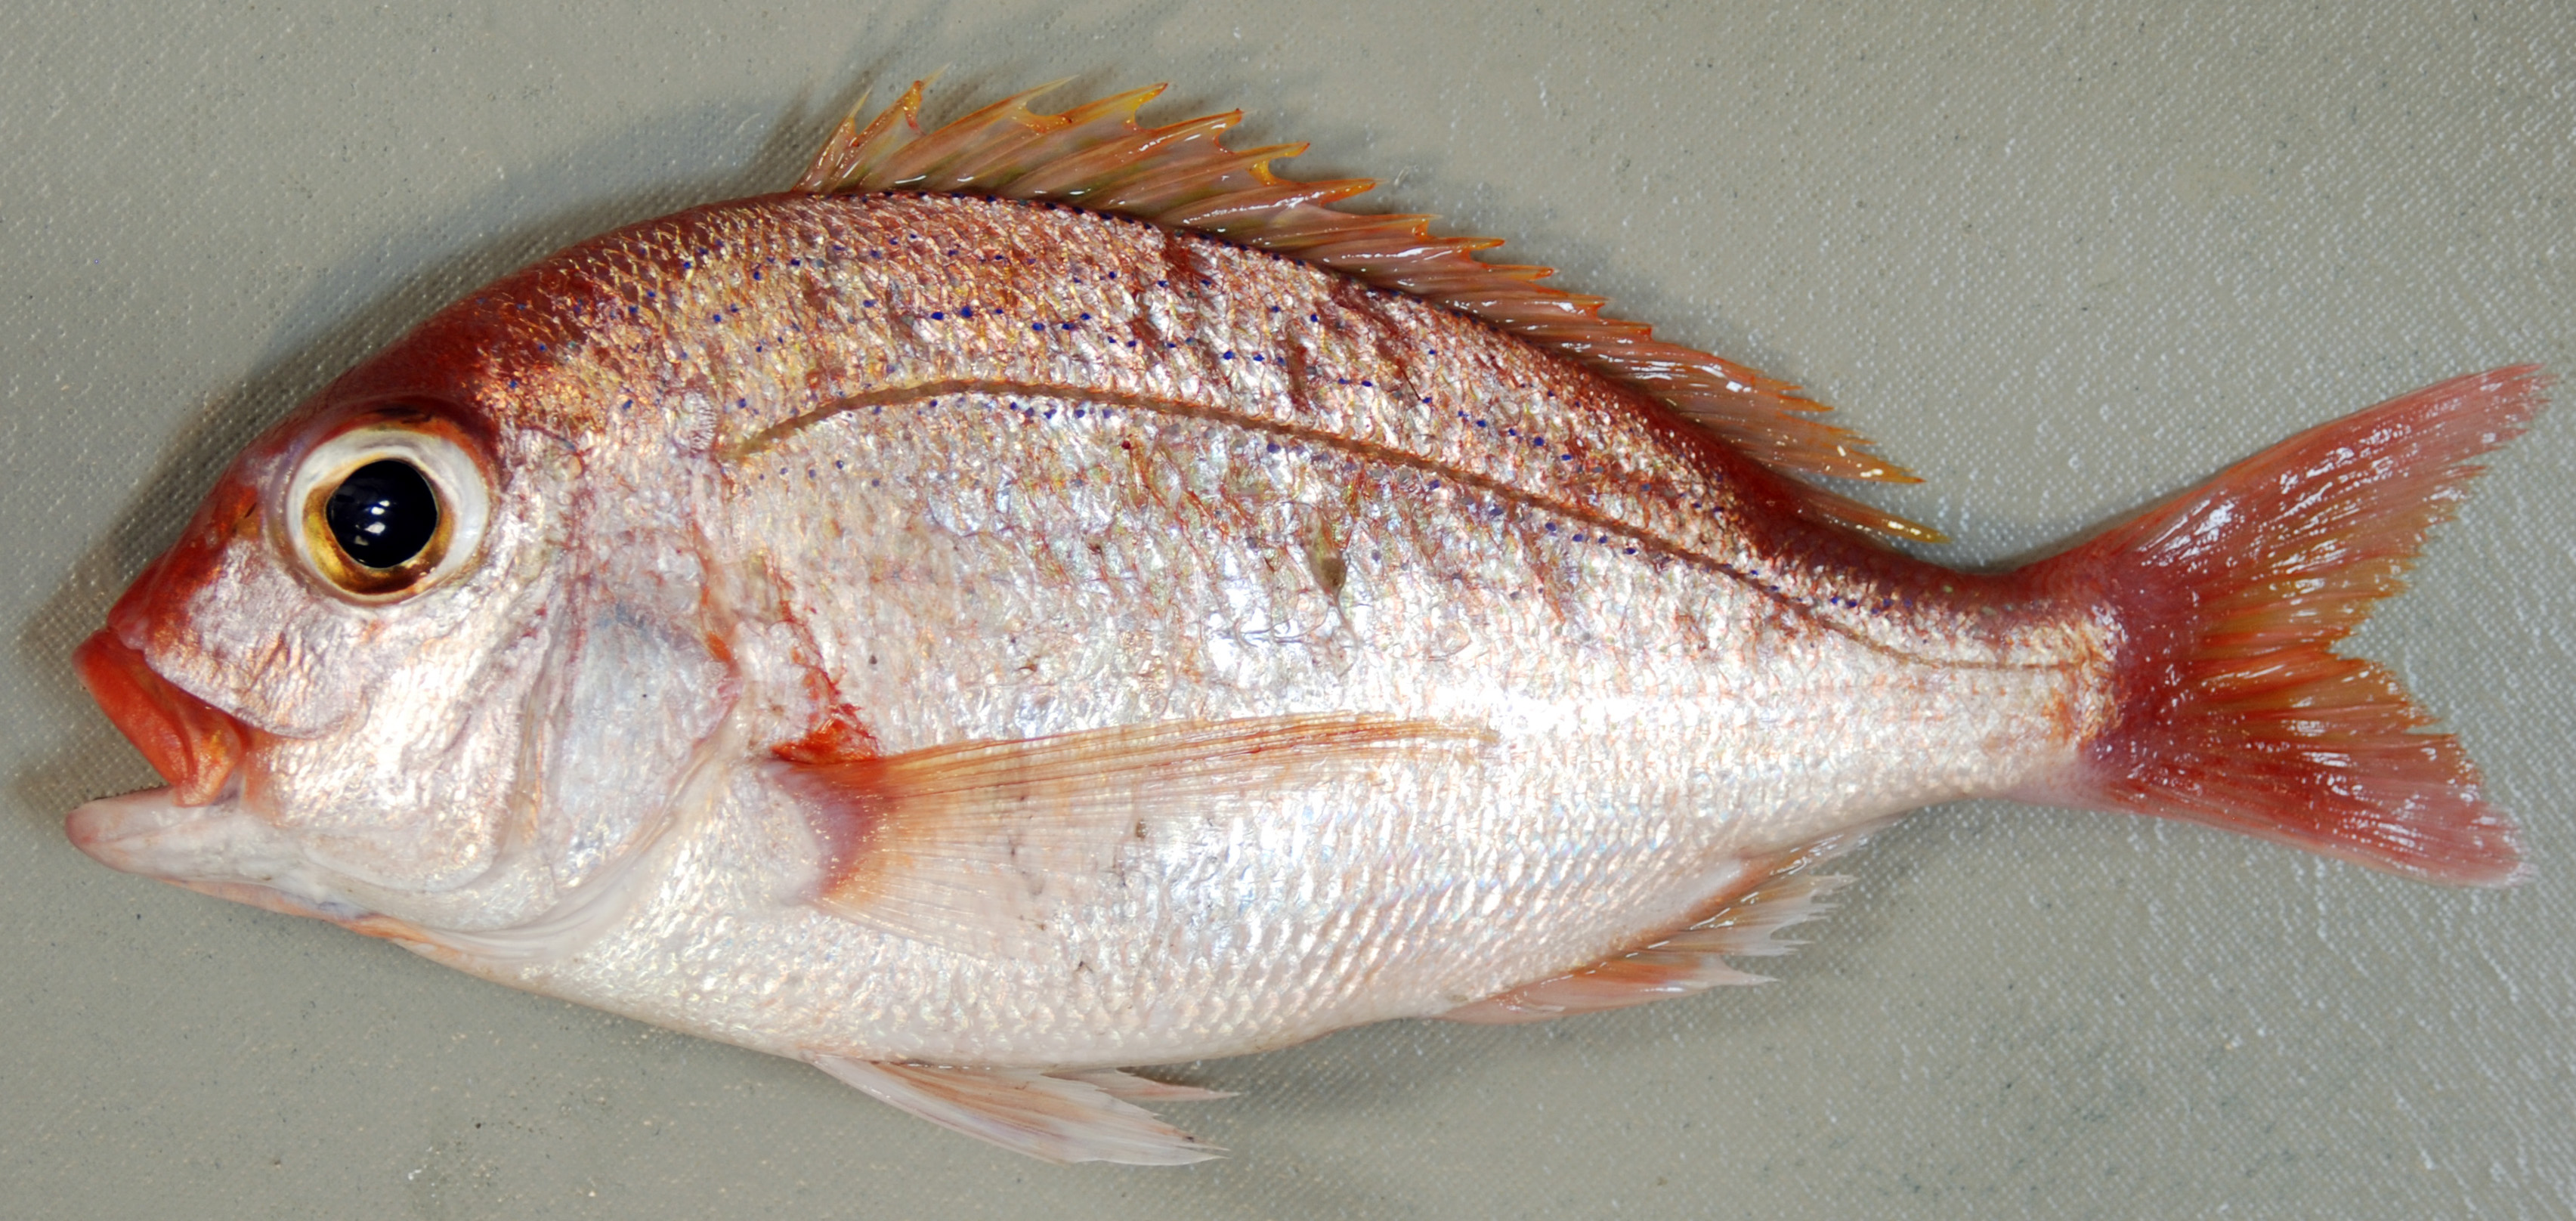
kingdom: Animalia
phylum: Chordata
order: Perciformes
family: Sparidae
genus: Polysteganus
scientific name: Polysteganus coeruleopunctatus
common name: Blueskin
